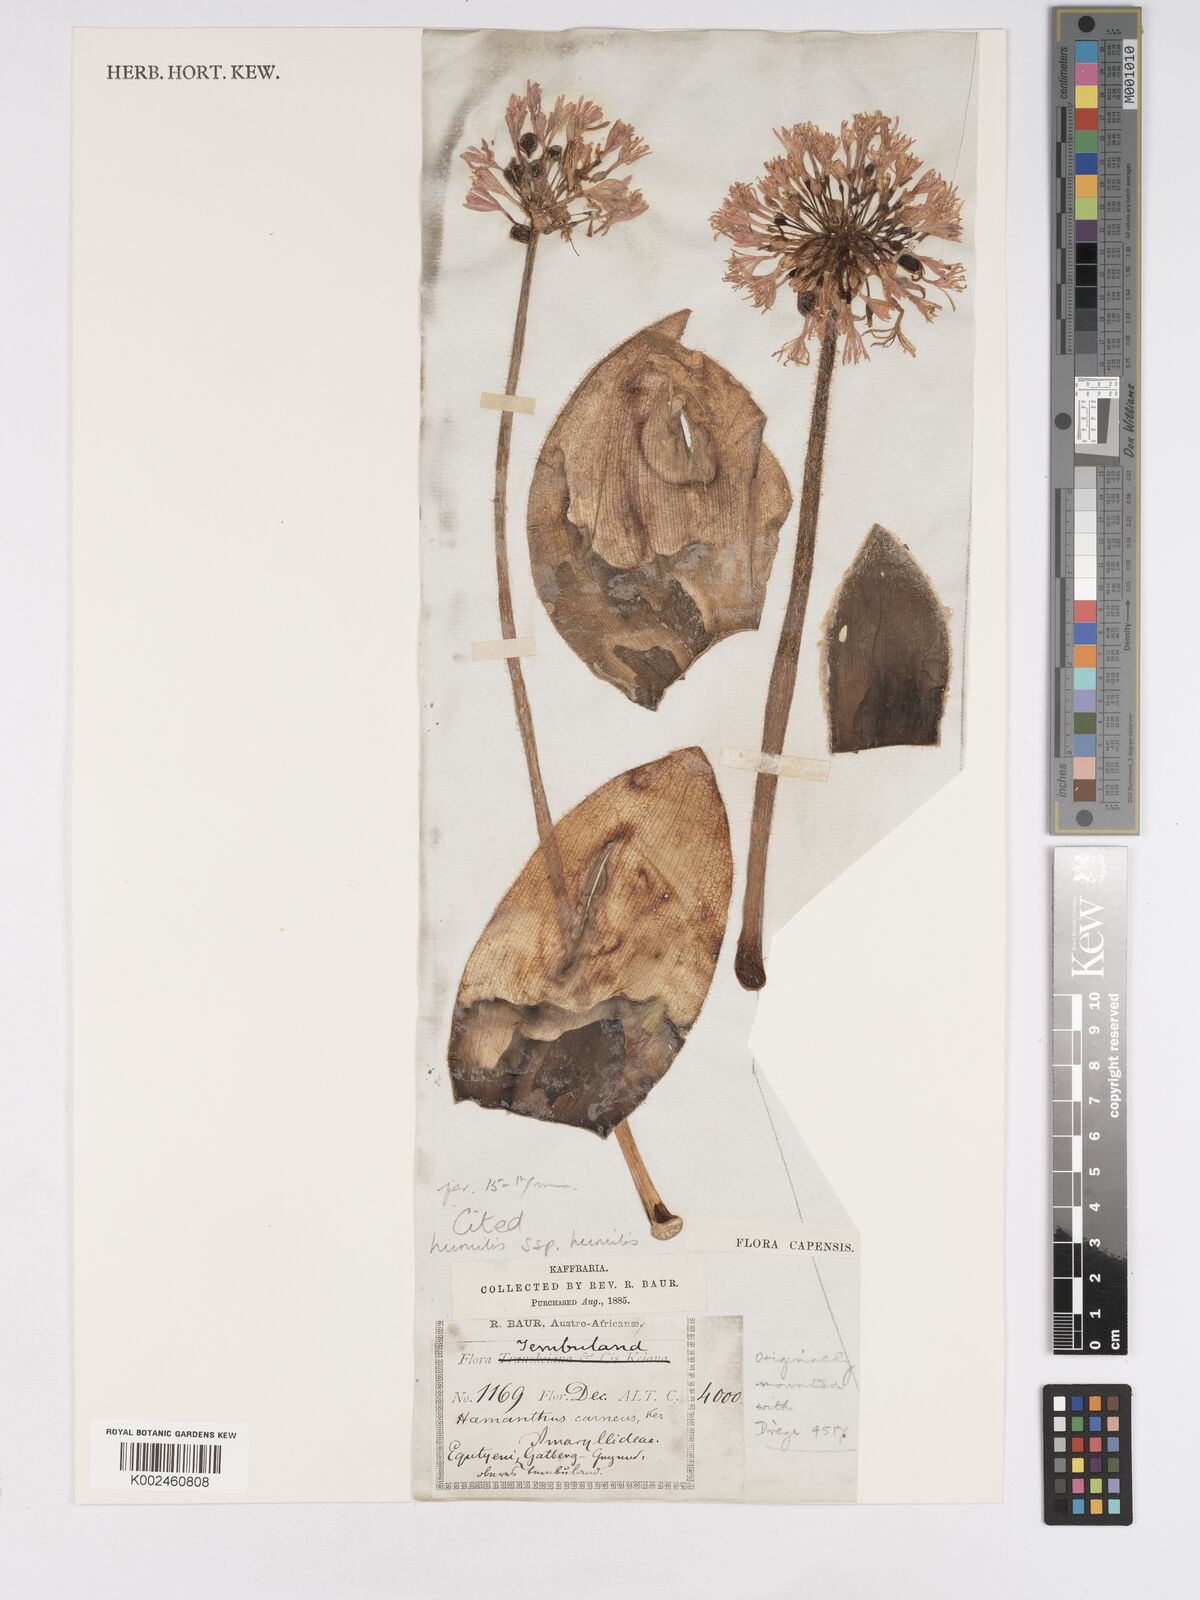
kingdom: Plantae
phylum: Tracheophyta
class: Liliopsida
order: Asparagales
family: Amaryllidaceae
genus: Haemanthus
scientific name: Haemanthus humilis
